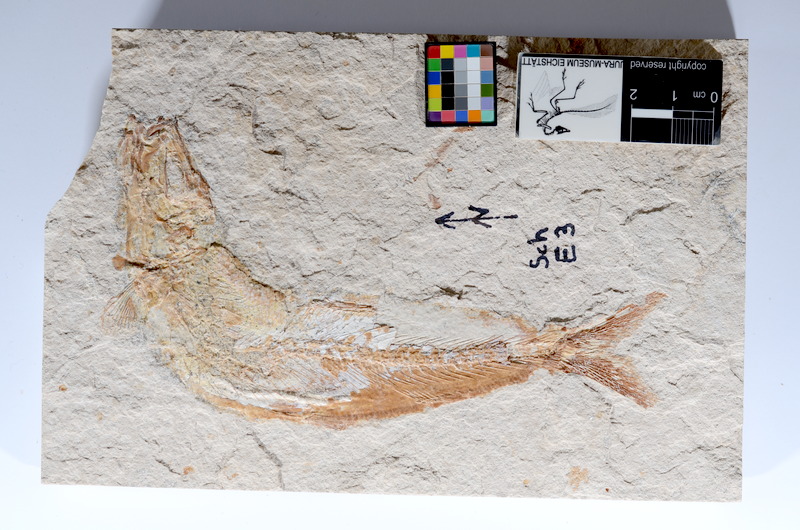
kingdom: Animalia
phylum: Chordata
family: Ascalaboidae
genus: Tharsis
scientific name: Tharsis dubius
